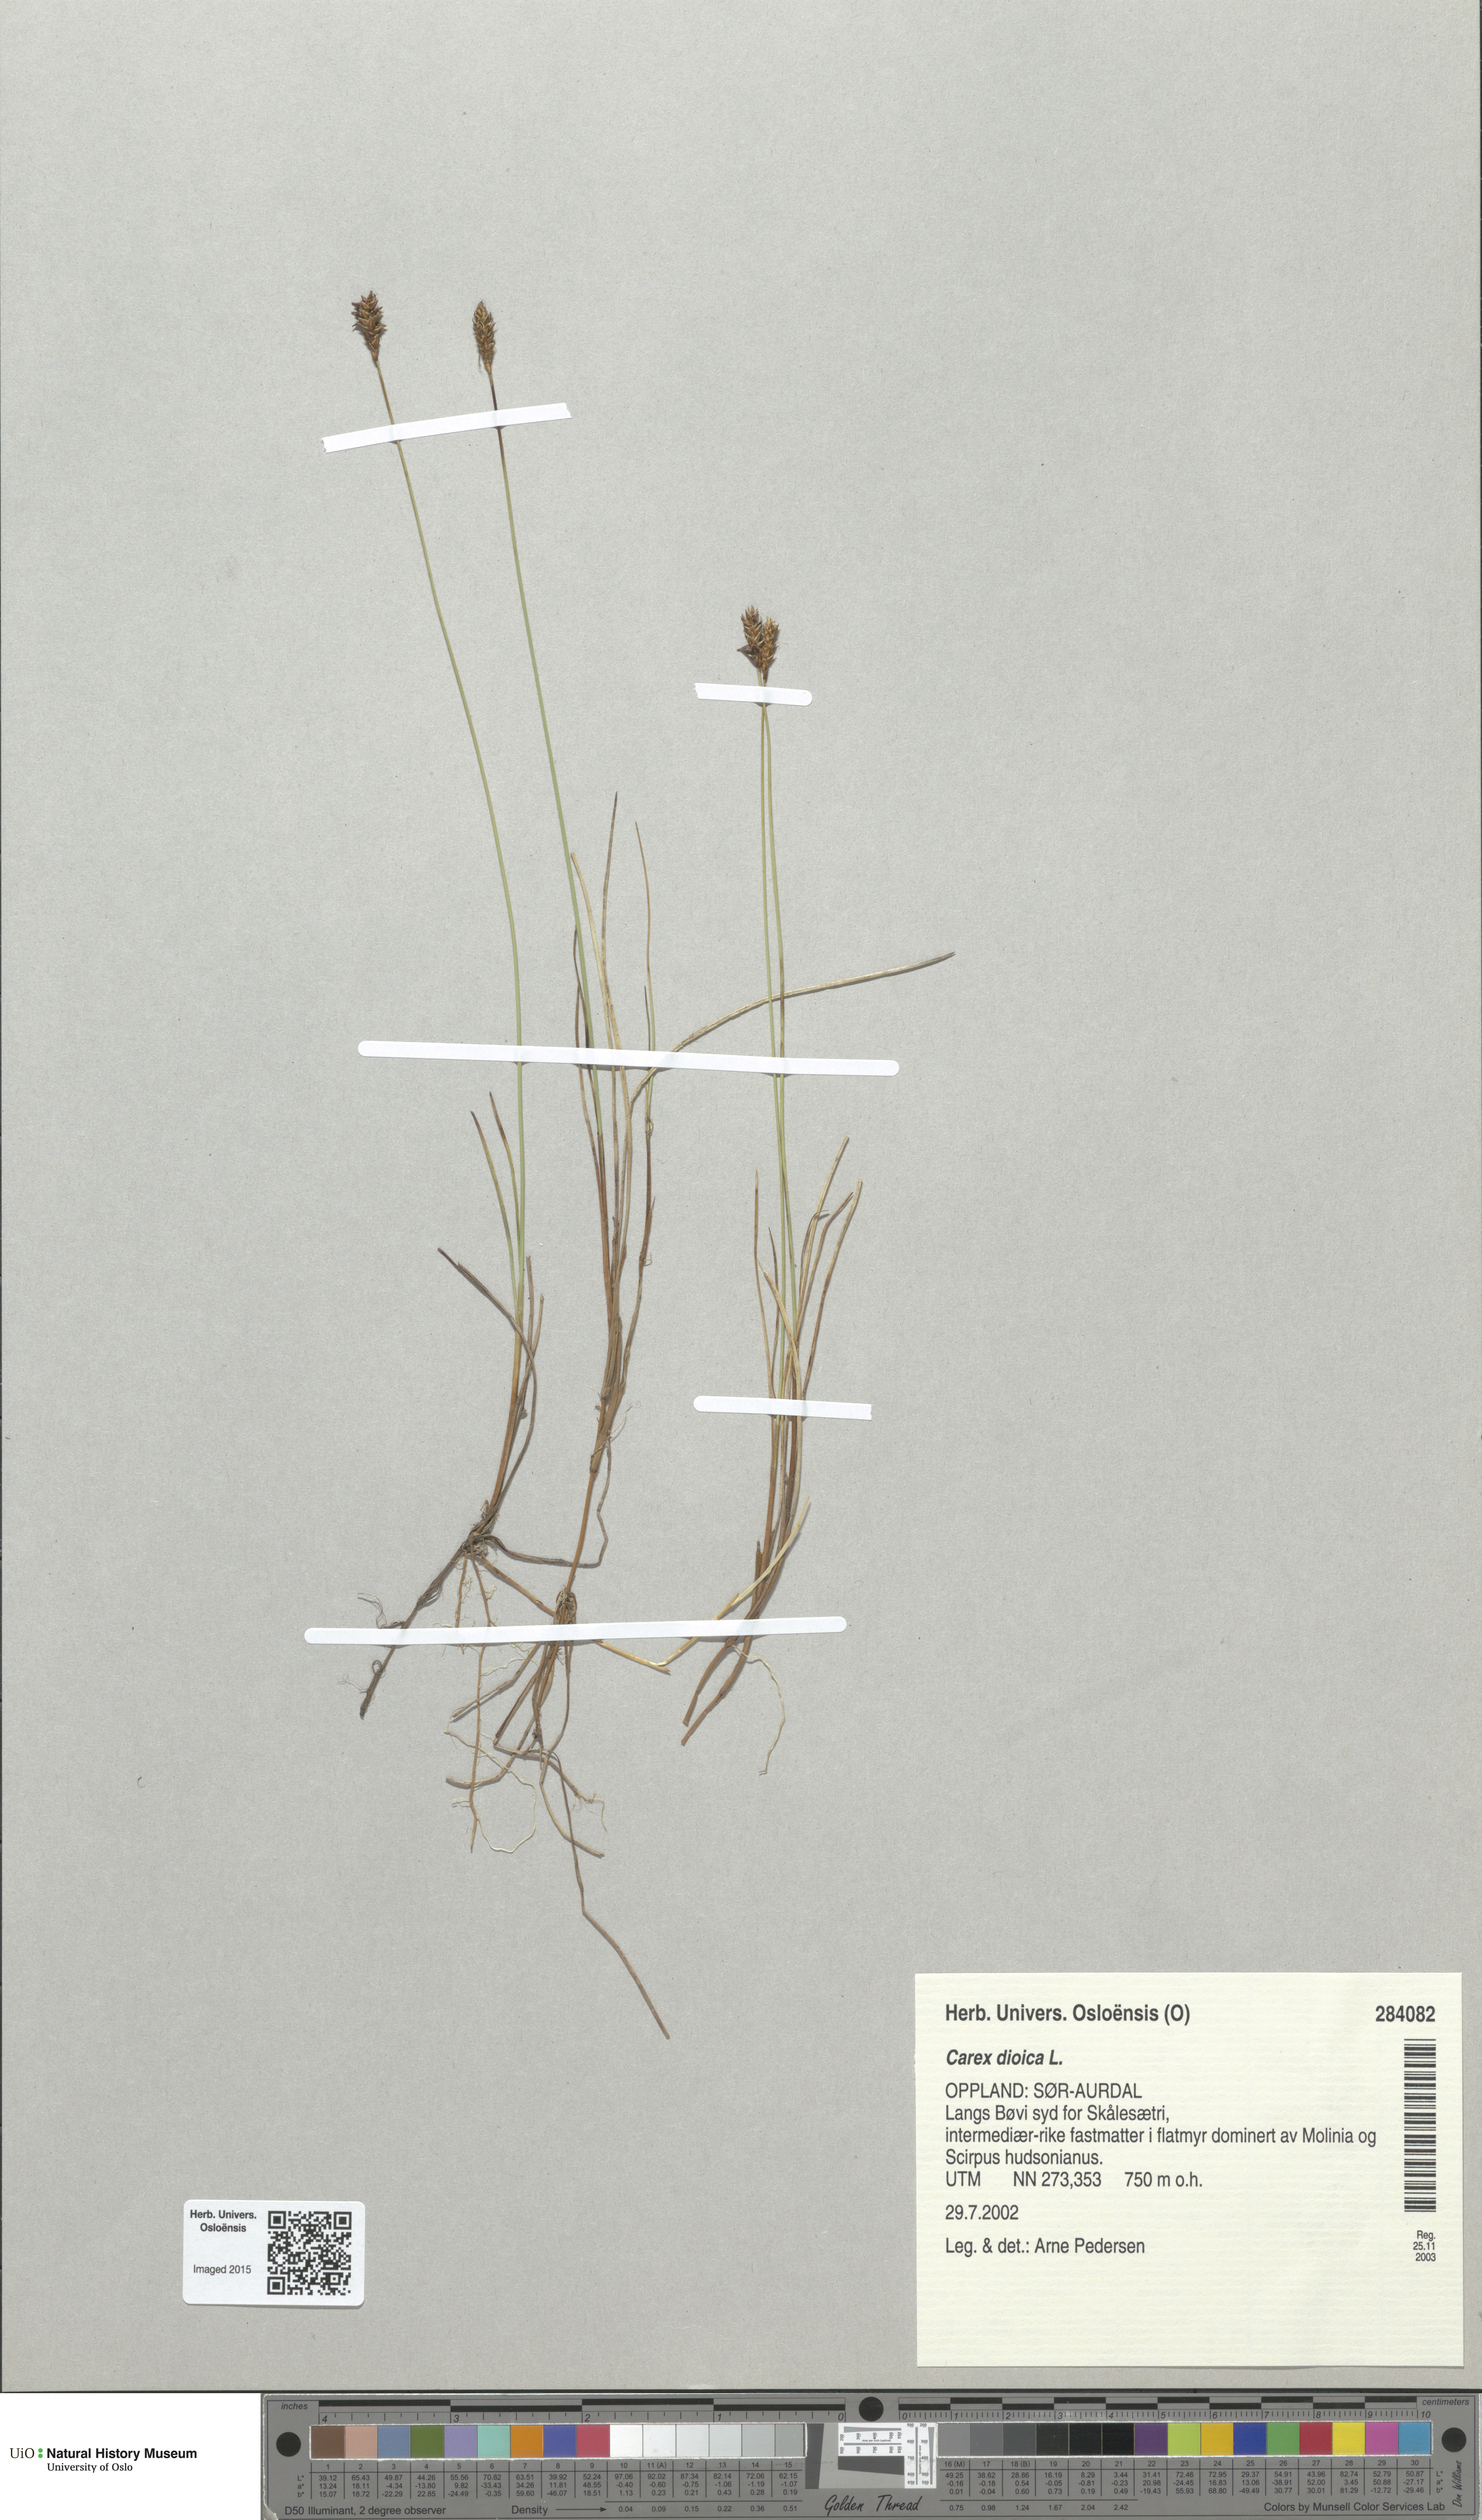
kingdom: Plantae
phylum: Tracheophyta
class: Liliopsida
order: Poales
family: Cyperaceae
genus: Carex
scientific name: Carex dioica
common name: Dioecious sedge
